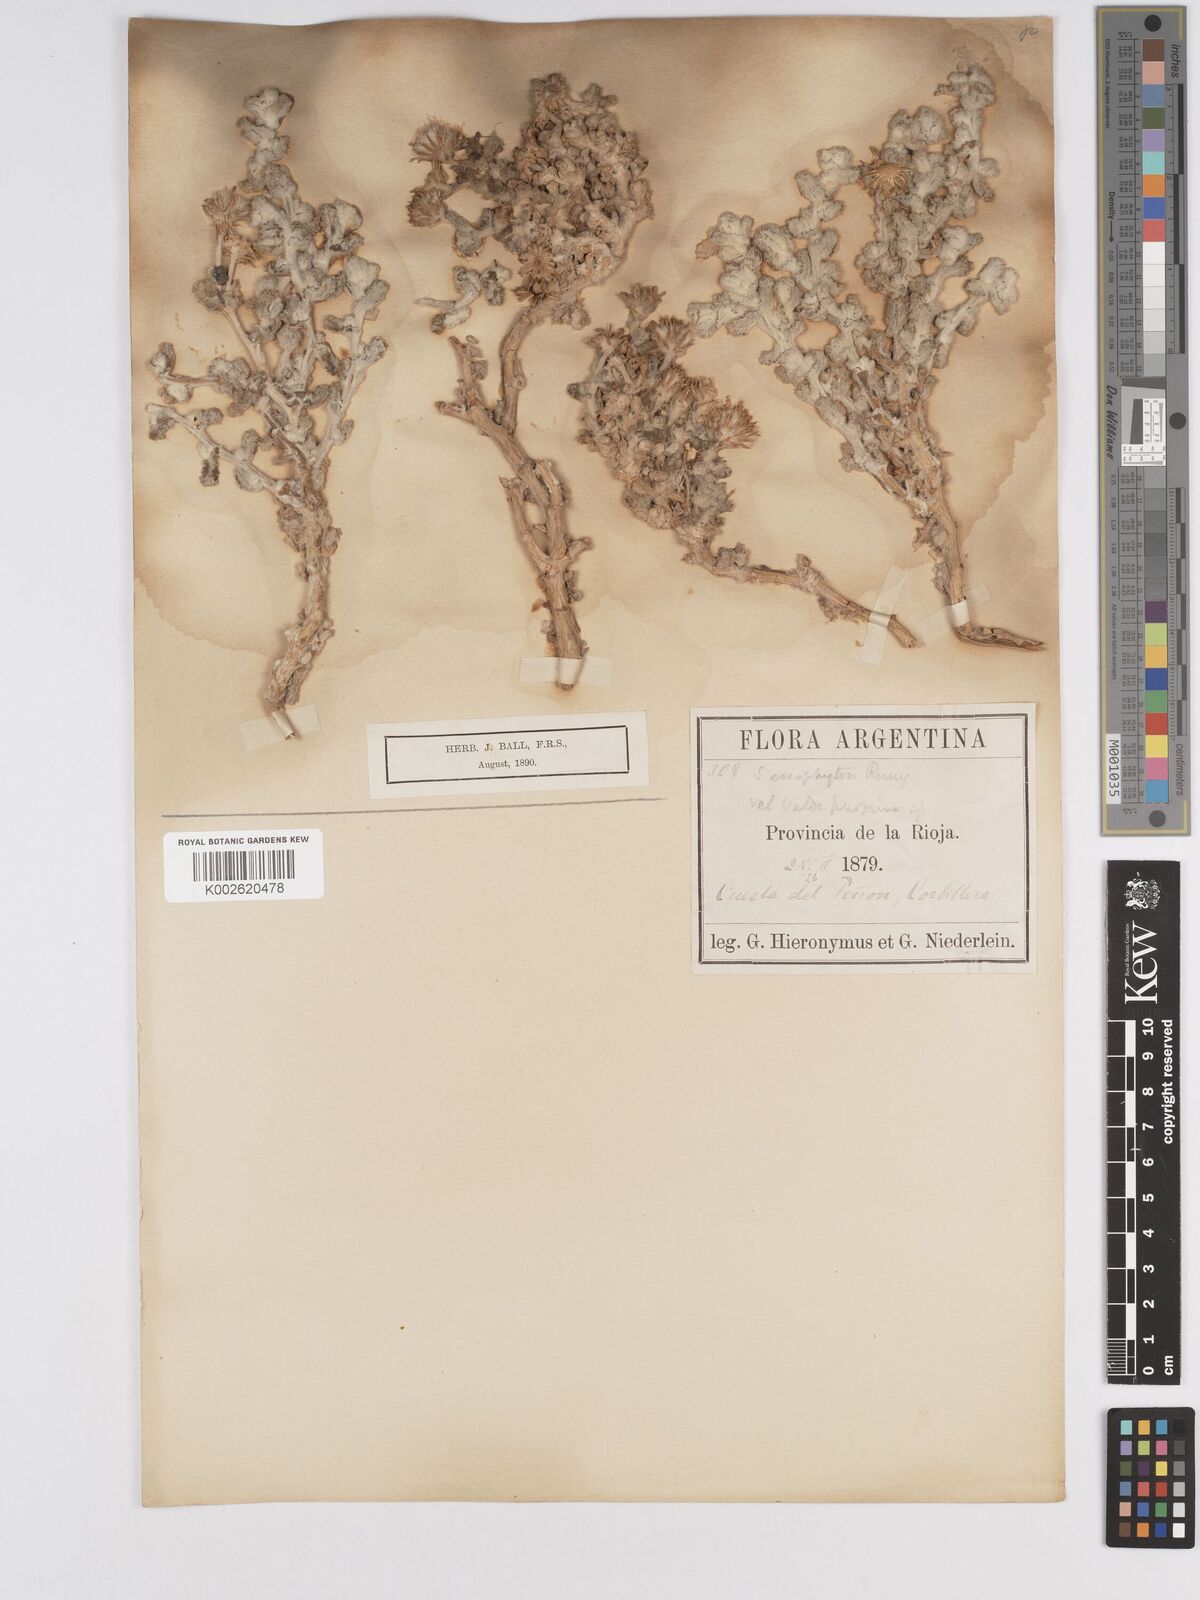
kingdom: Plantae
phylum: Tracheophyta
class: Magnoliopsida
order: Asterales
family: Asteraceae
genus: Senecio
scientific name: Senecio eriophyton
